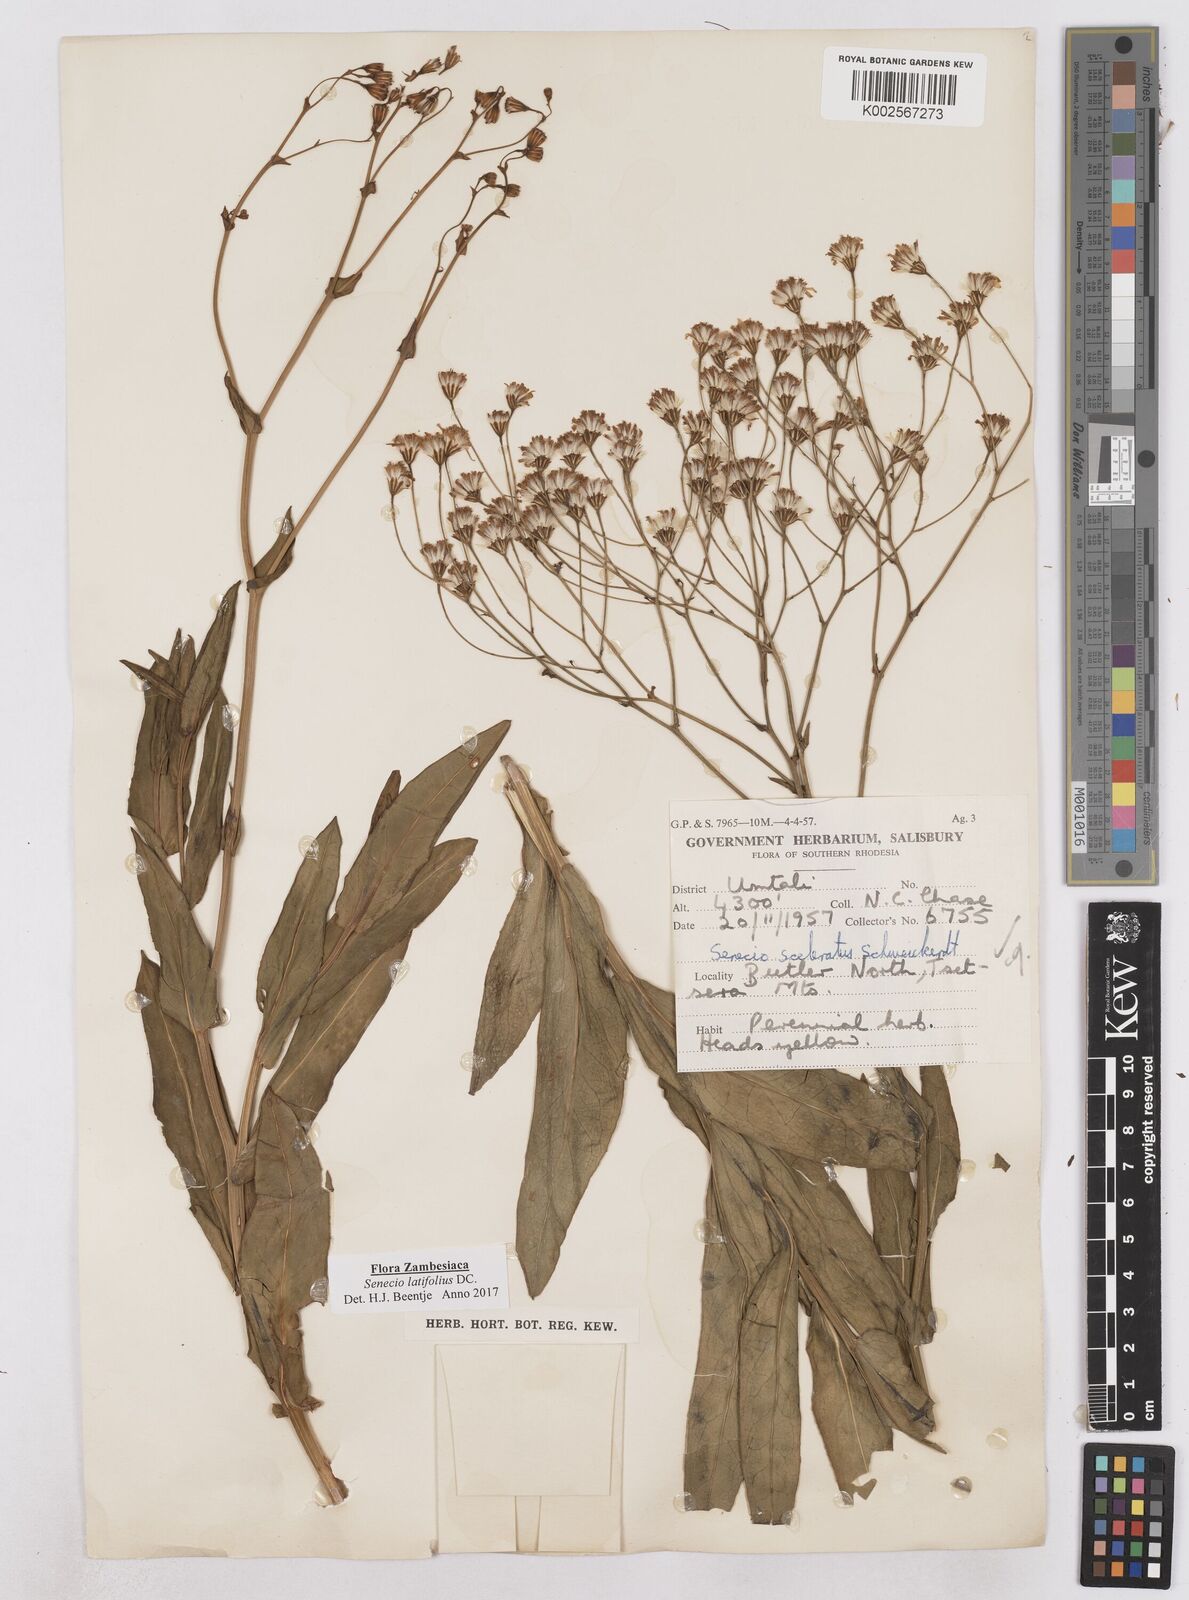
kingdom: Plantae
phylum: Tracheophyta
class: Magnoliopsida
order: Asterales
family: Asteraceae
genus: Senecio
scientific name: Senecio latifolius
